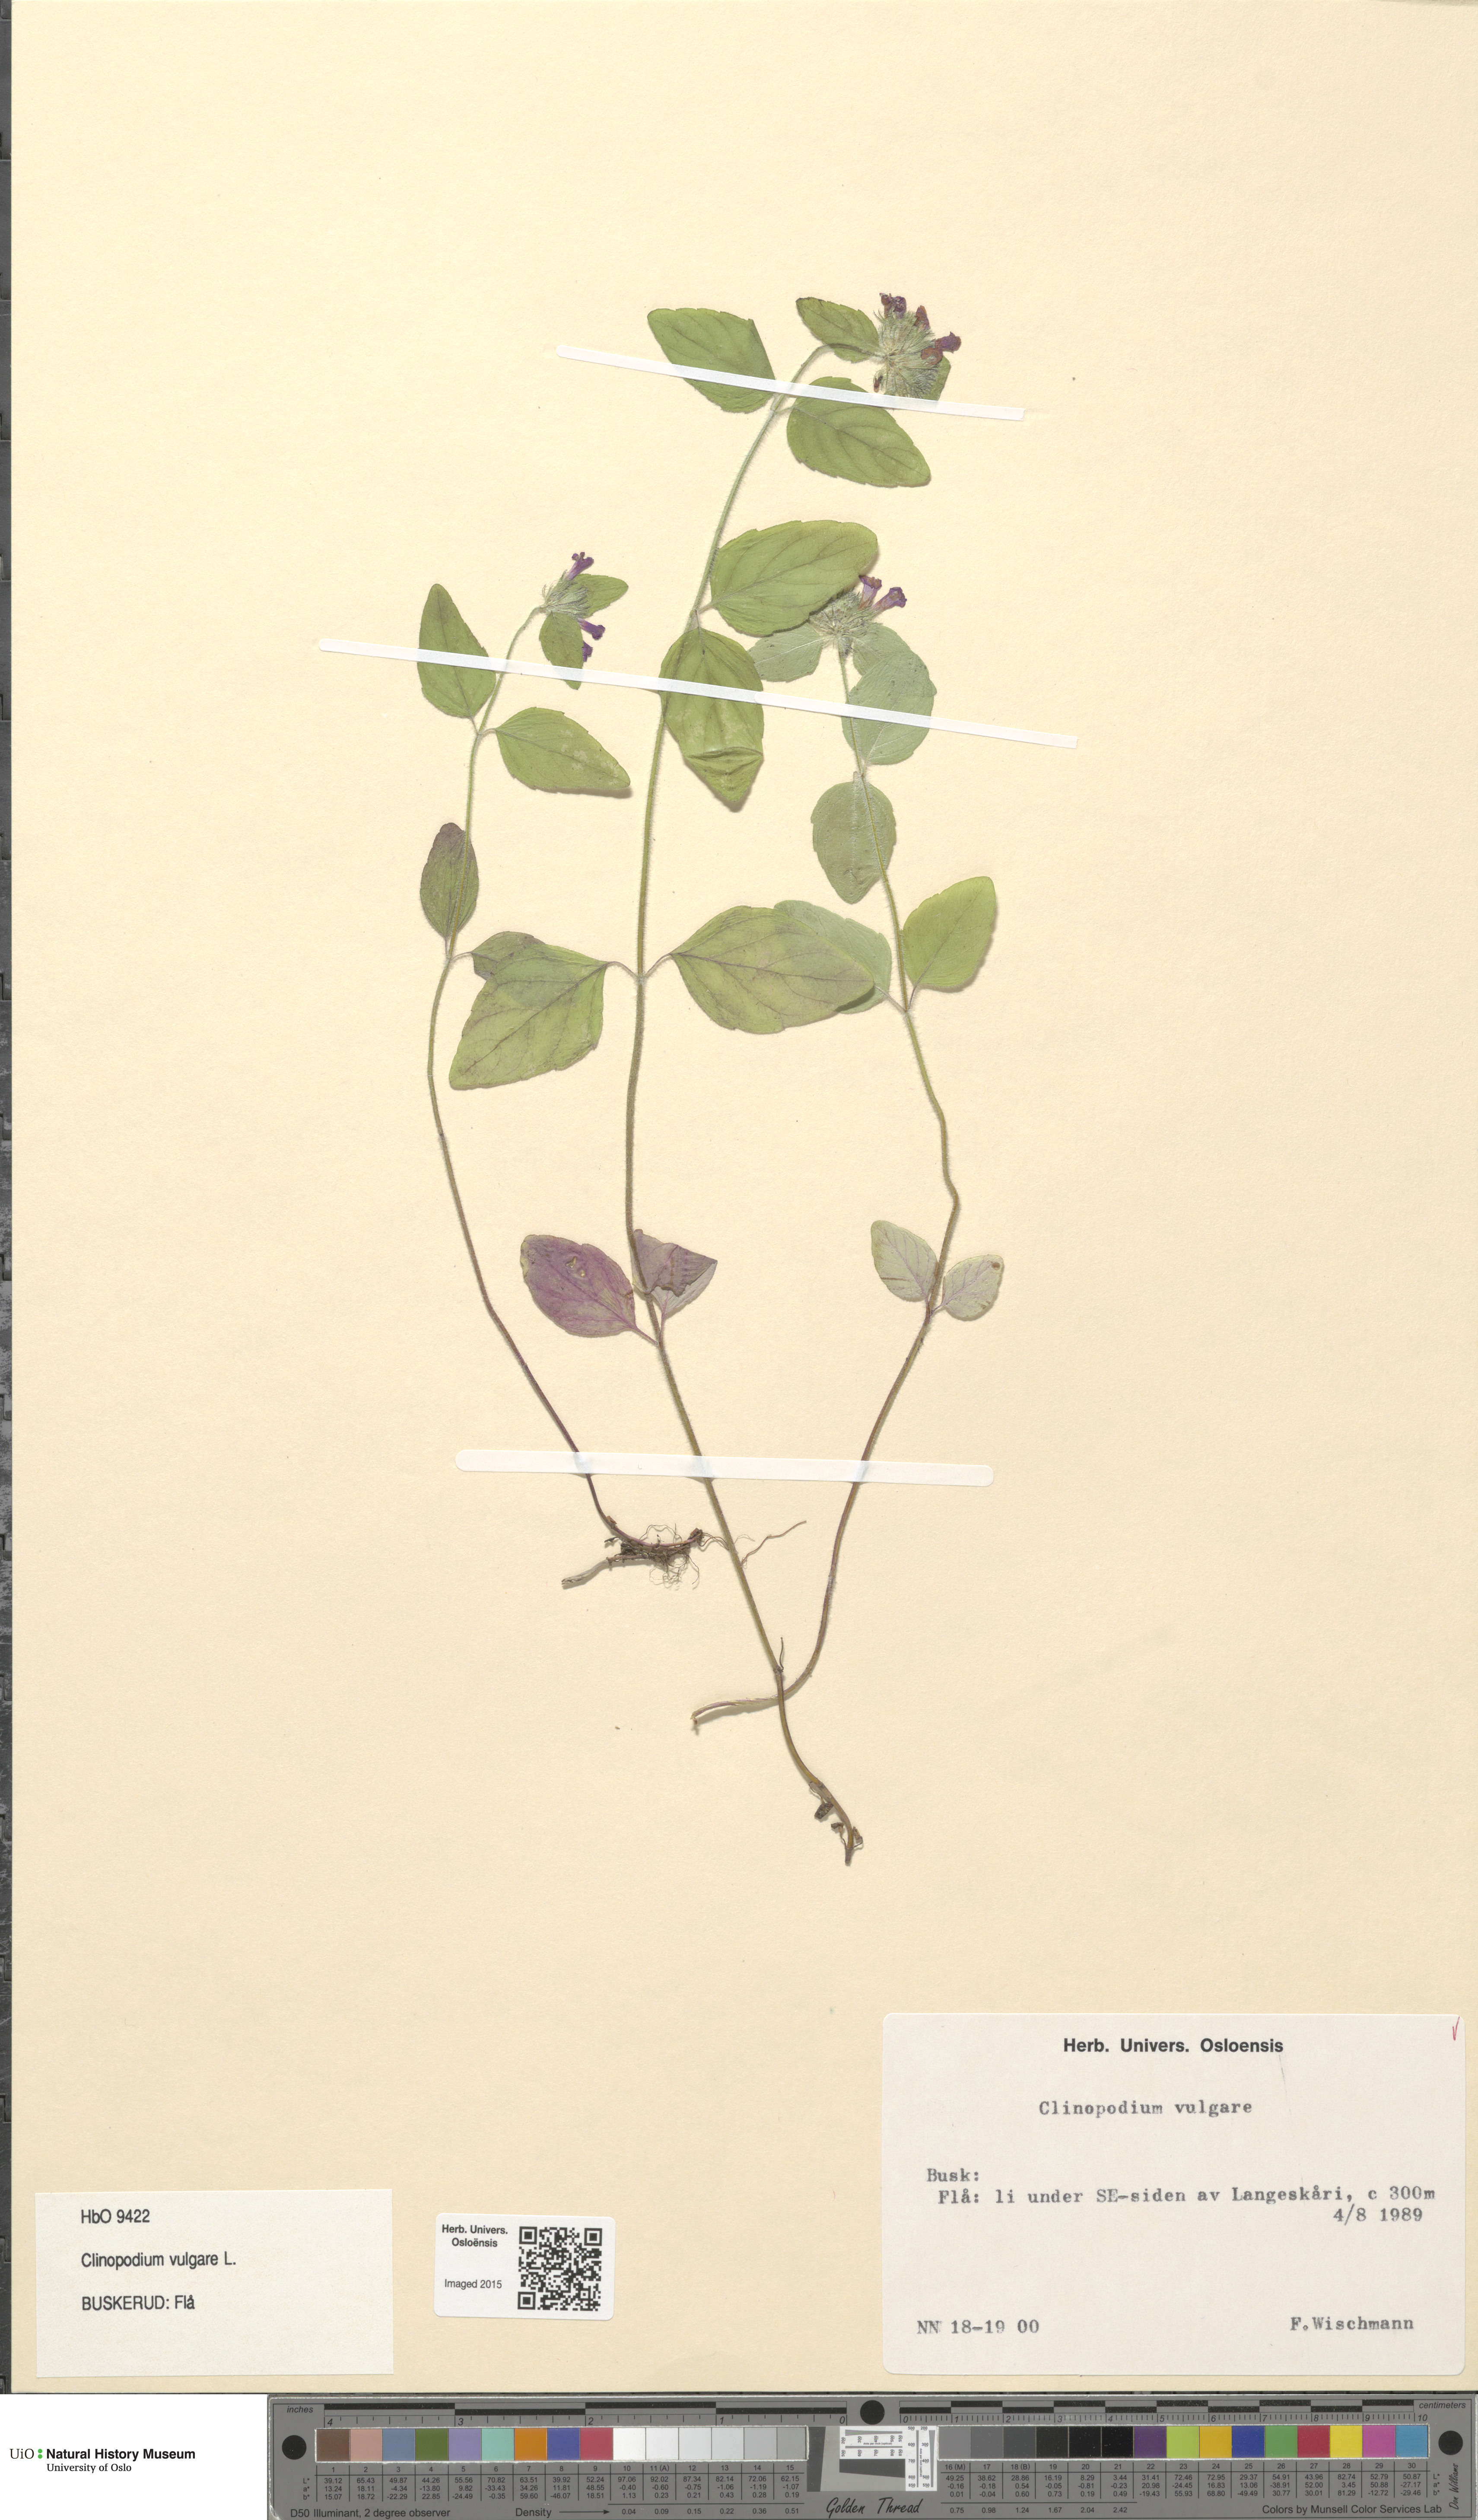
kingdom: Plantae
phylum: Tracheophyta
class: Magnoliopsida
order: Lamiales
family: Lamiaceae
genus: Clinopodium
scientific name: Clinopodium vulgare
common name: Wild basil
